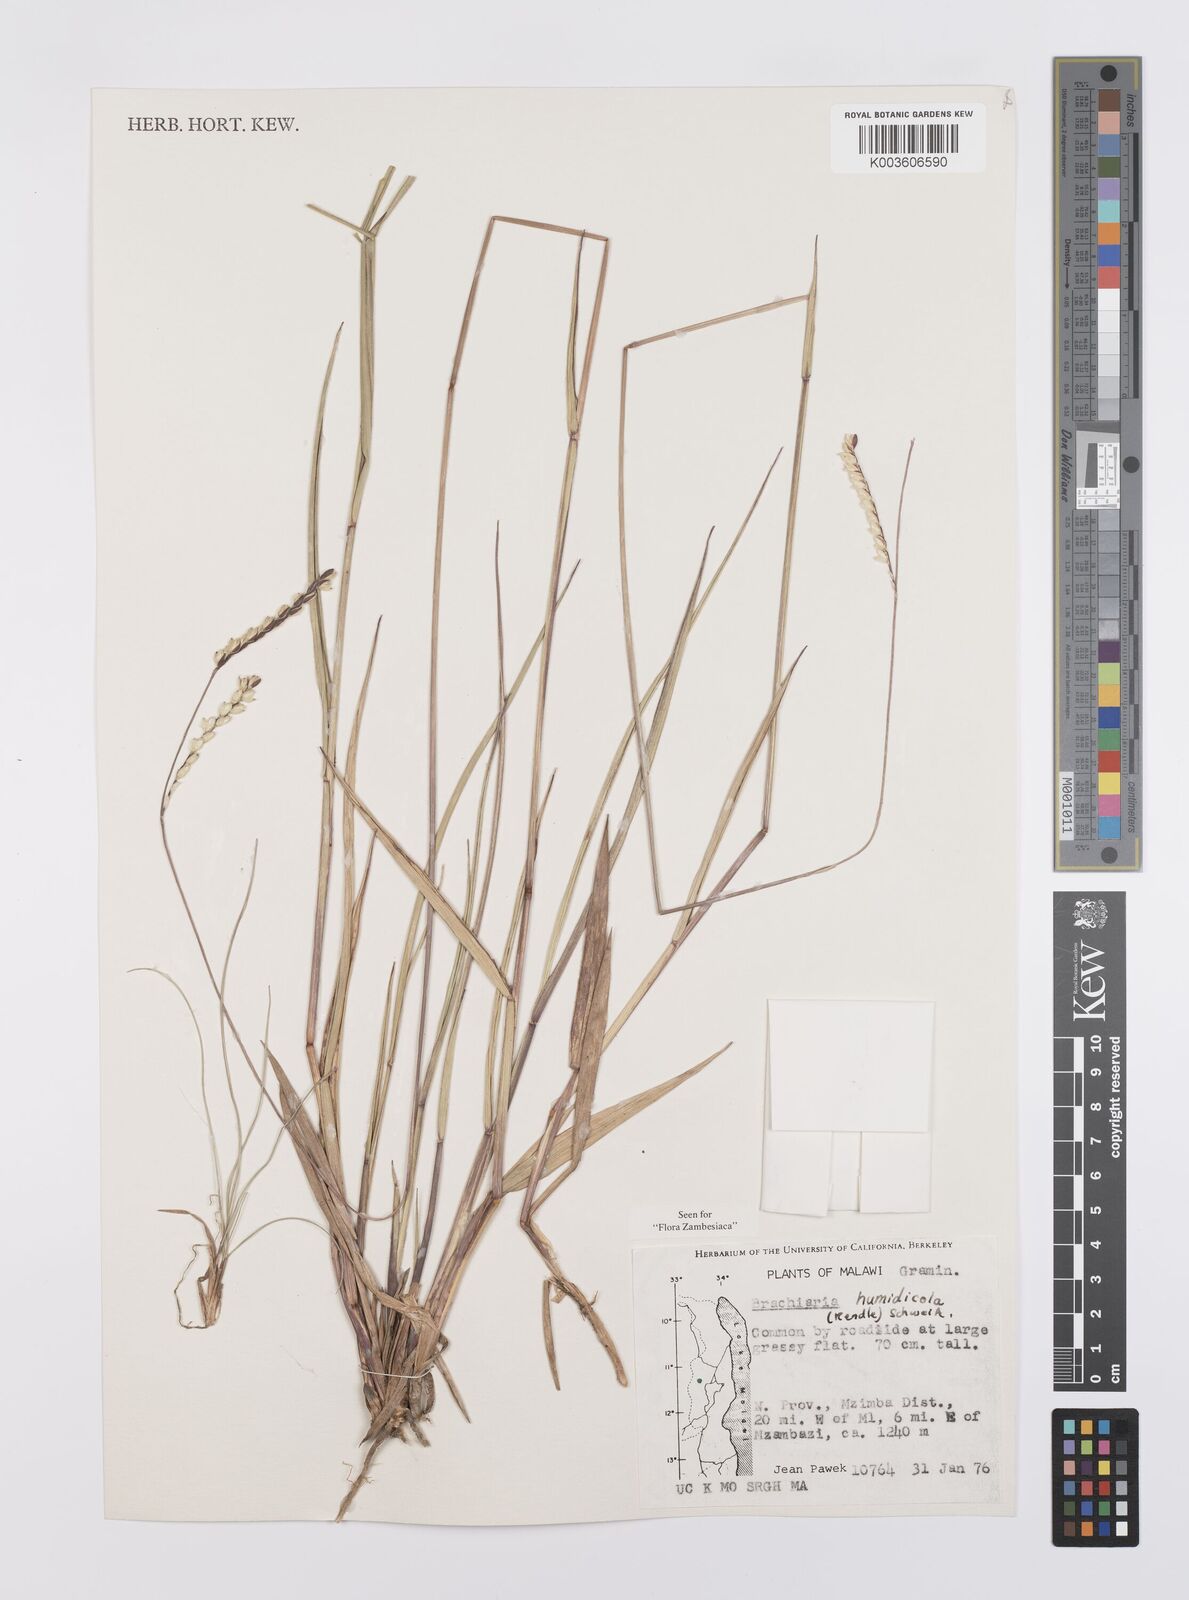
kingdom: Plantae
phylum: Tracheophyta
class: Liliopsida
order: Poales
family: Poaceae
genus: Urochloa
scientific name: Urochloa dictyoneura
